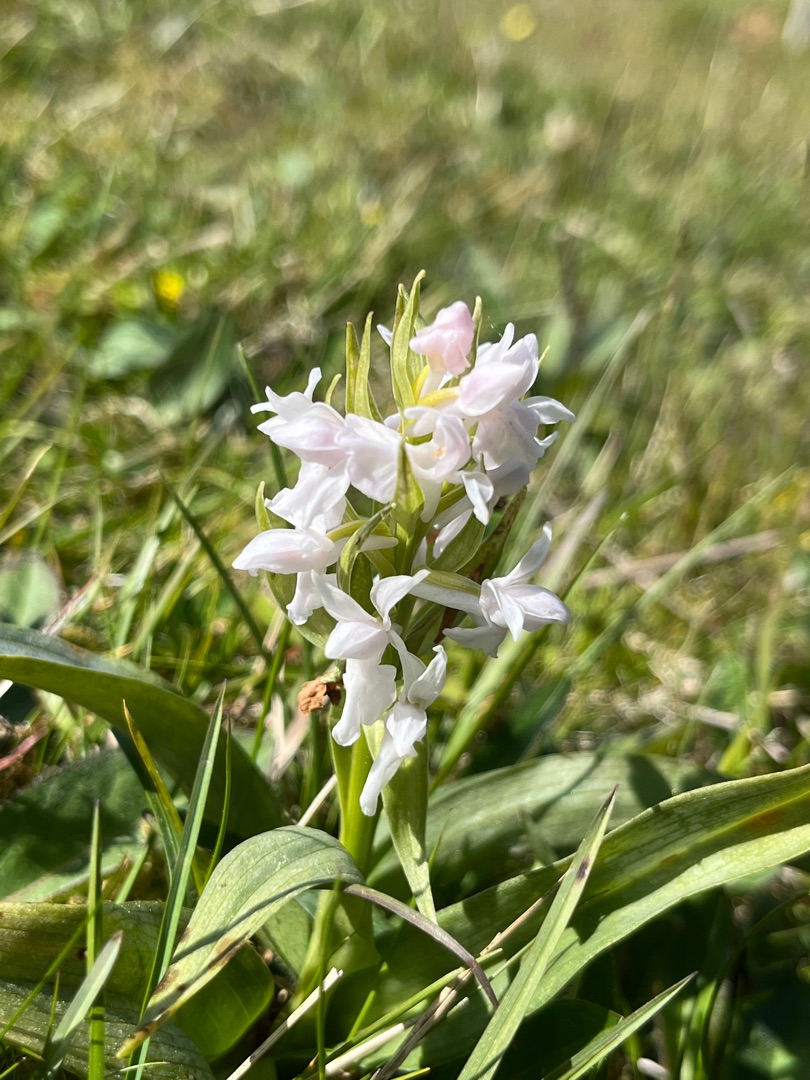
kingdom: Plantae
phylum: Tracheophyta
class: Liliopsida
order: Asparagales
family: Orchidaceae
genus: Dactylorhiza
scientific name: Dactylorhiza majalis
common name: Maj-gøgeurt
